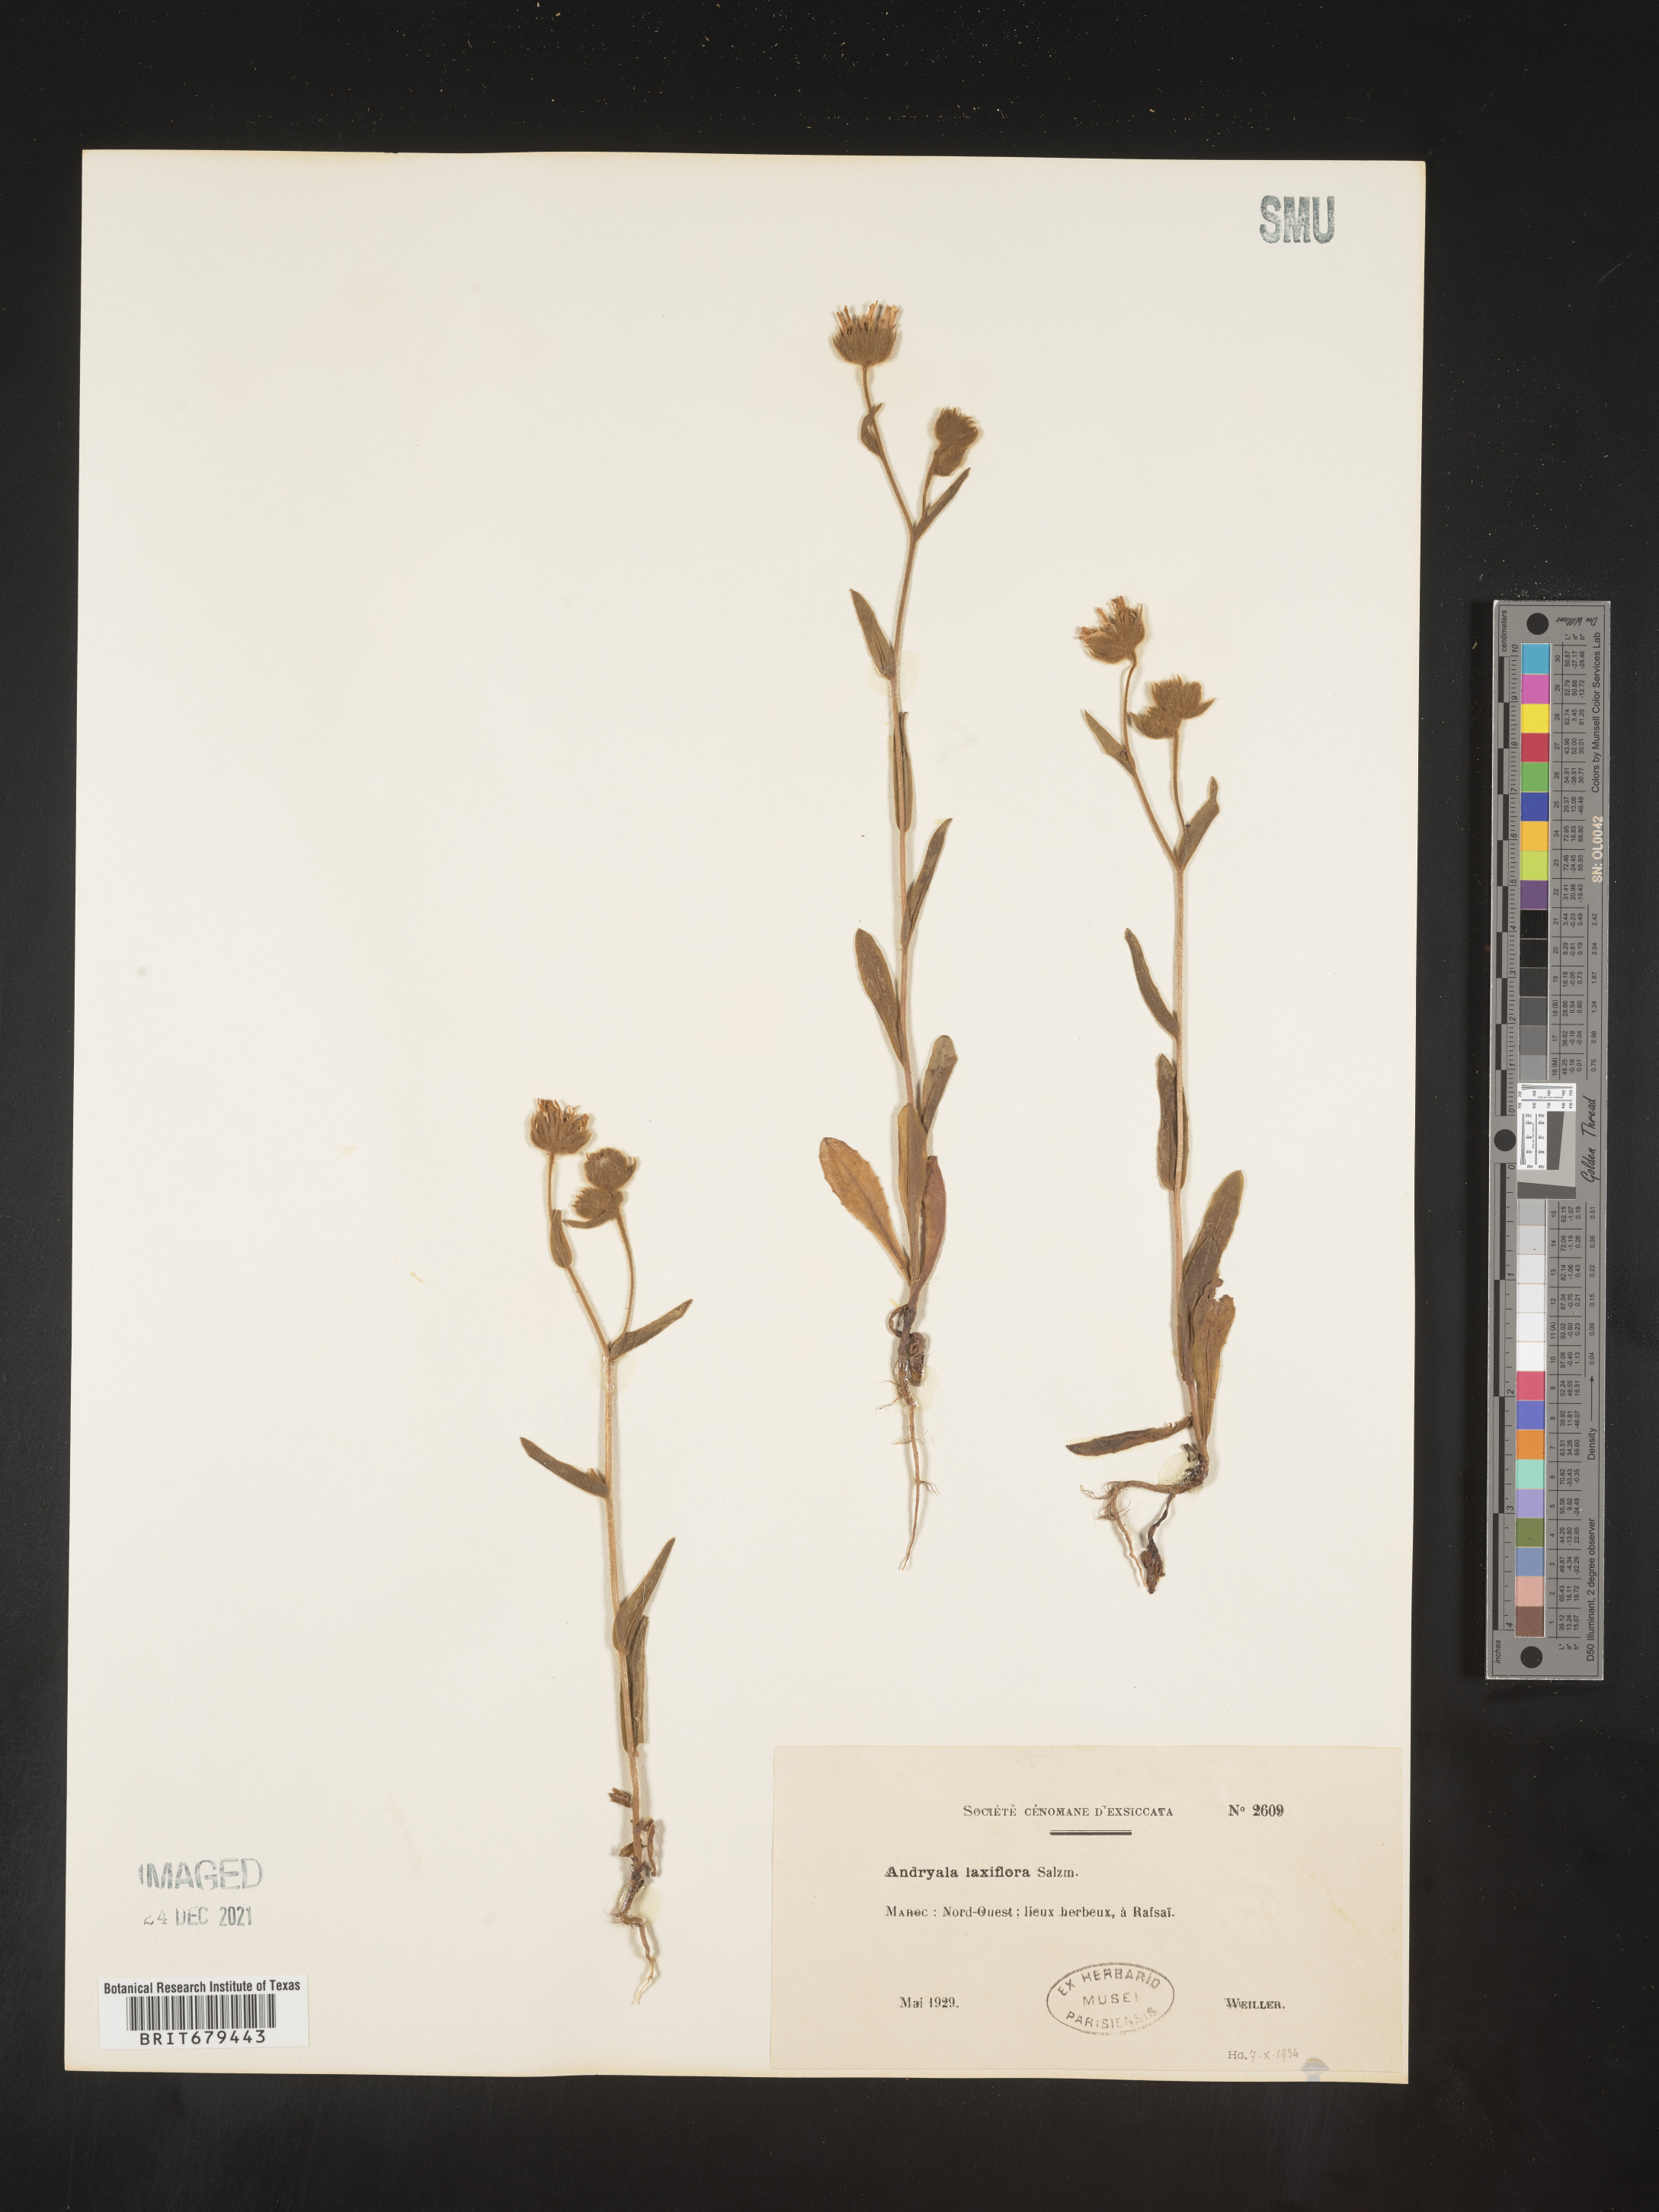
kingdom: Plantae
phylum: Tracheophyta
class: Magnoliopsida
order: Asterales
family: Asteraceae
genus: Andryala
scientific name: Andryala
